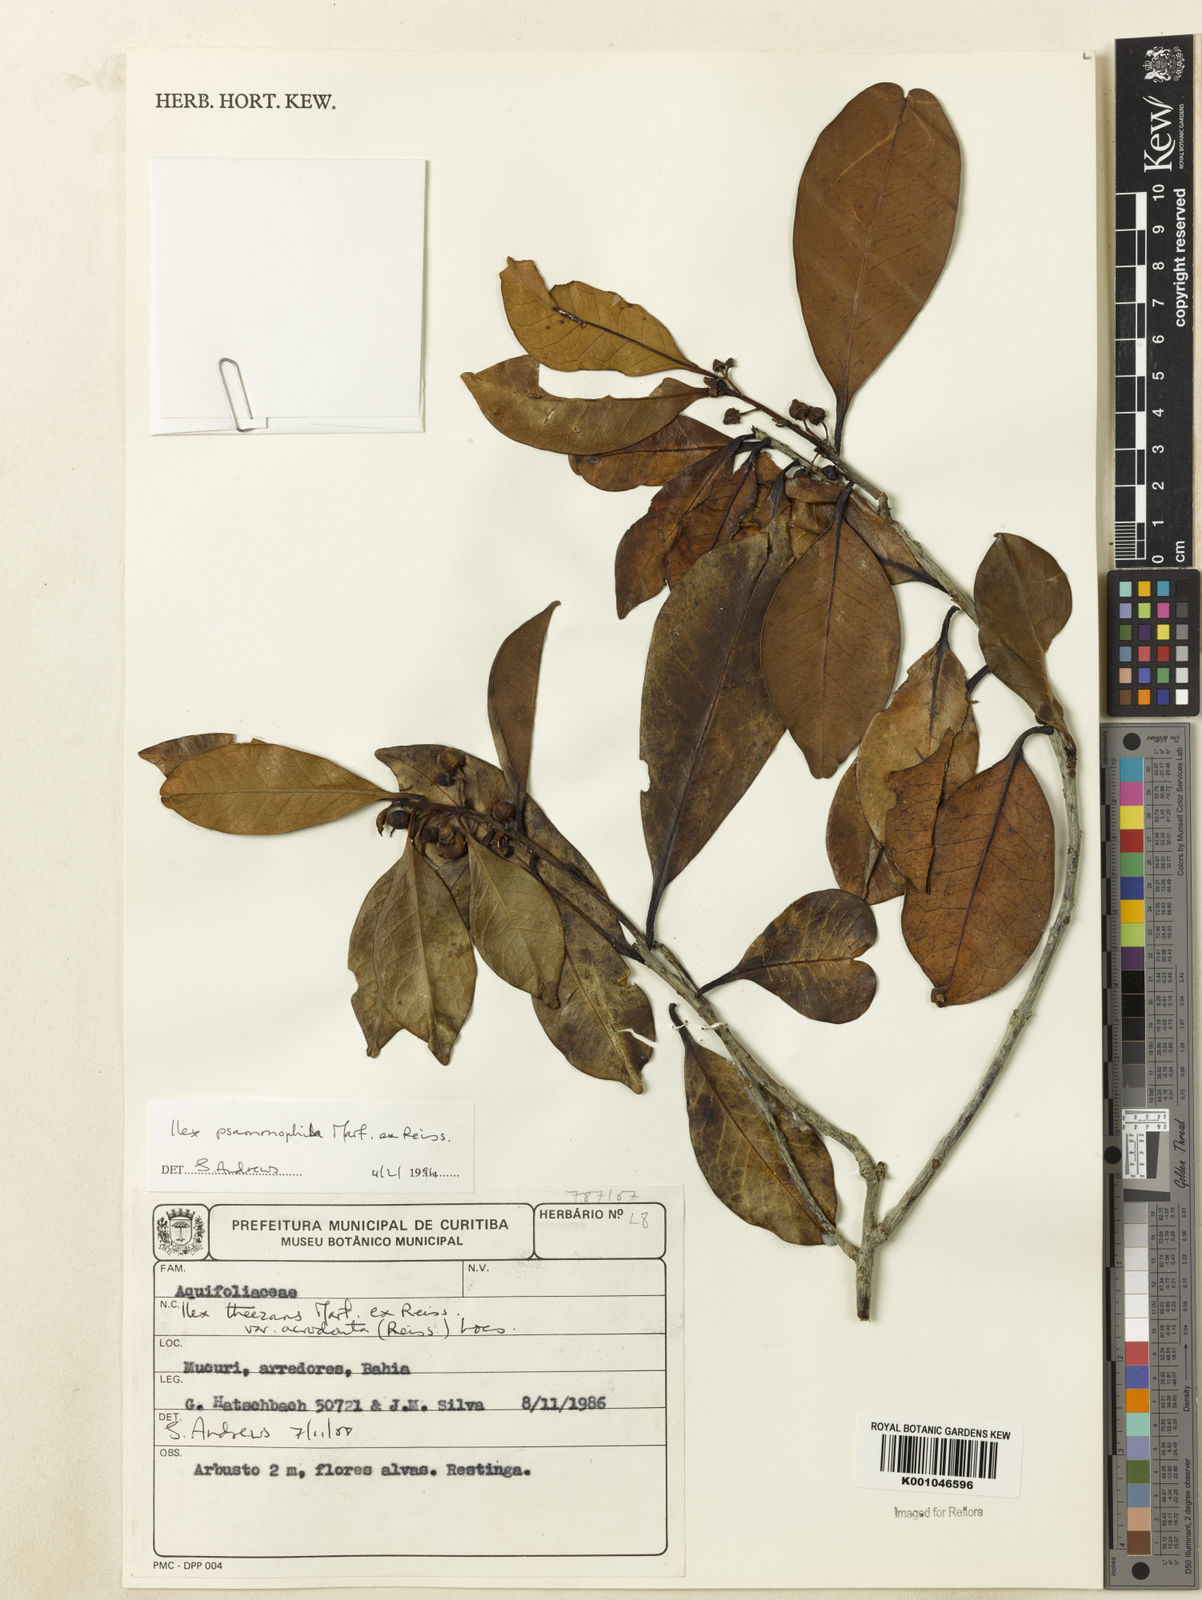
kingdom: Plantae
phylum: Tracheophyta
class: Magnoliopsida
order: Aquifoliales
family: Aquifoliaceae
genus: Ilex
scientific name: Ilex psammophila
